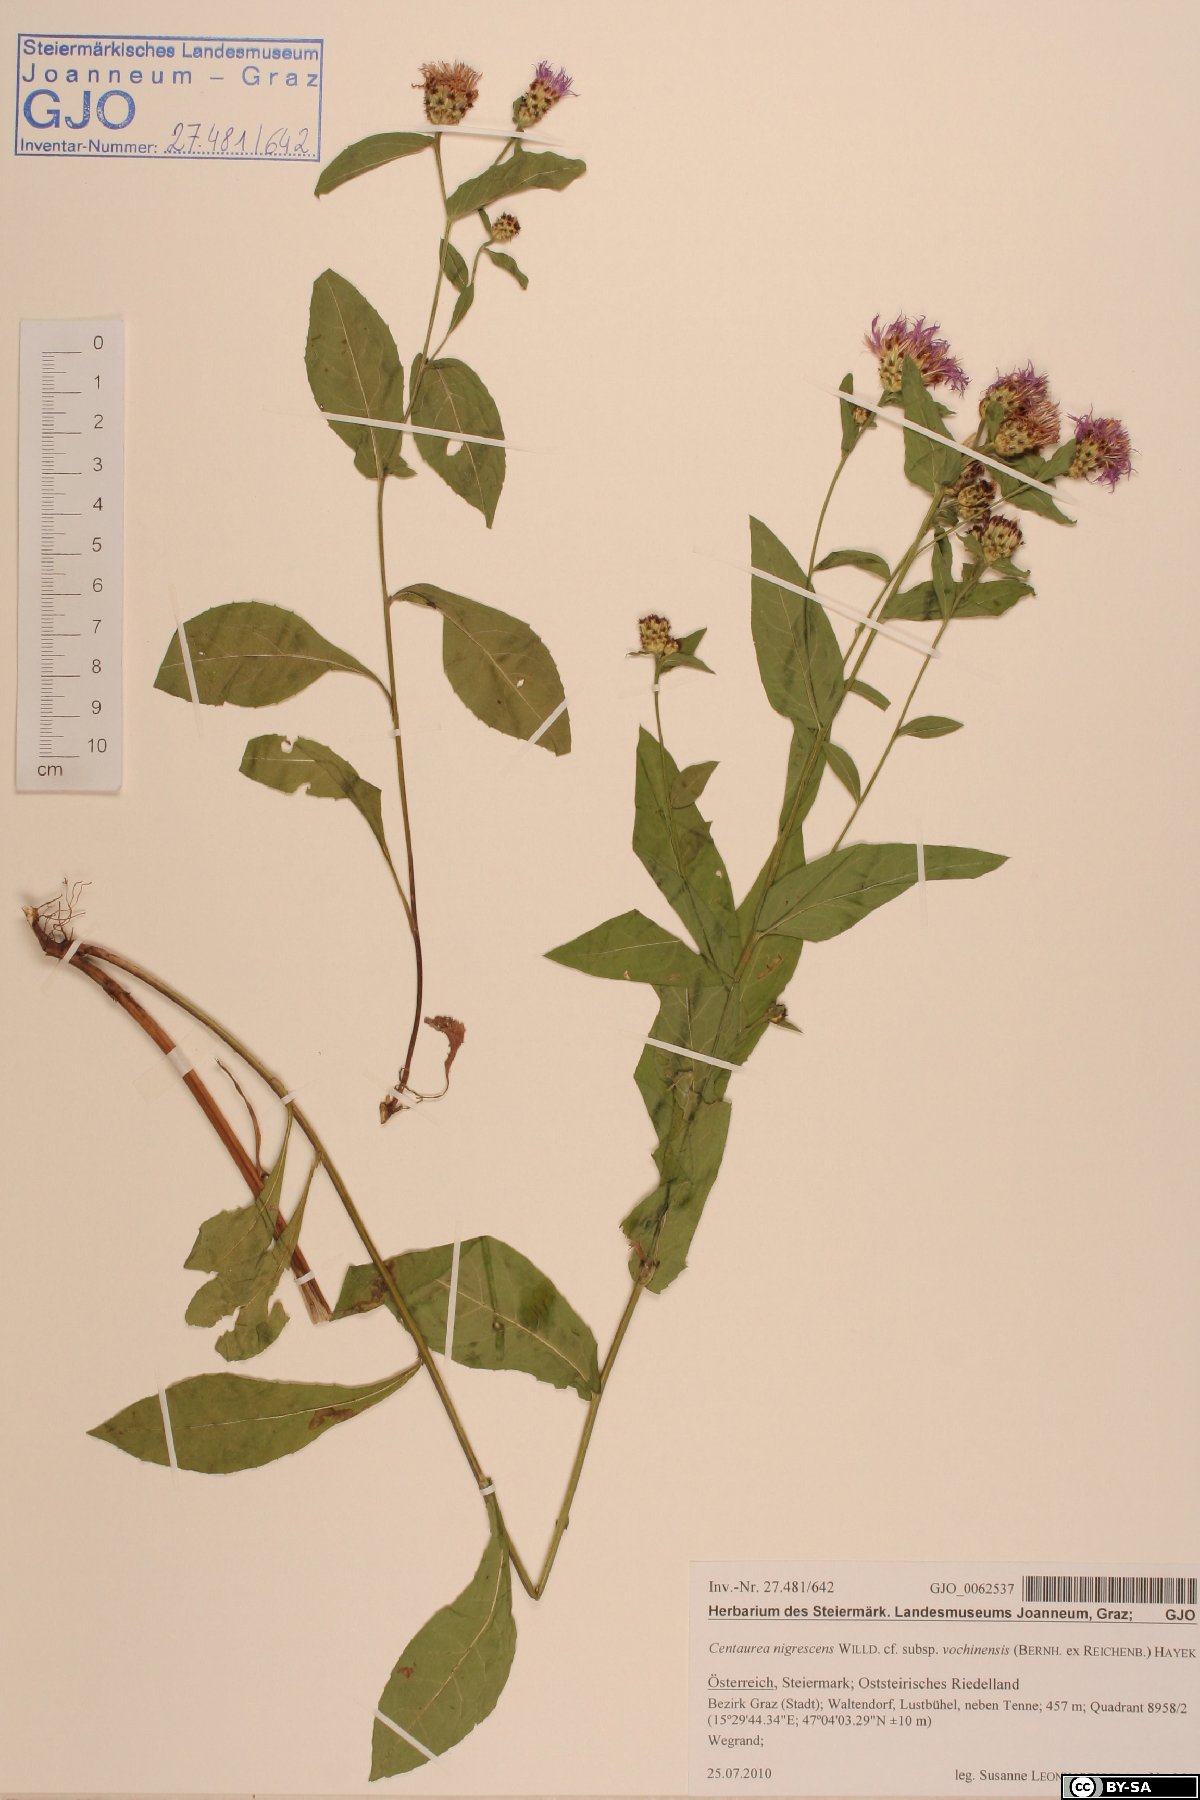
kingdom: Plantae
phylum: Tracheophyta
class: Magnoliopsida
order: Asterales
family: Asteraceae
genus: Centaurea
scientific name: Centaurea carniolica
